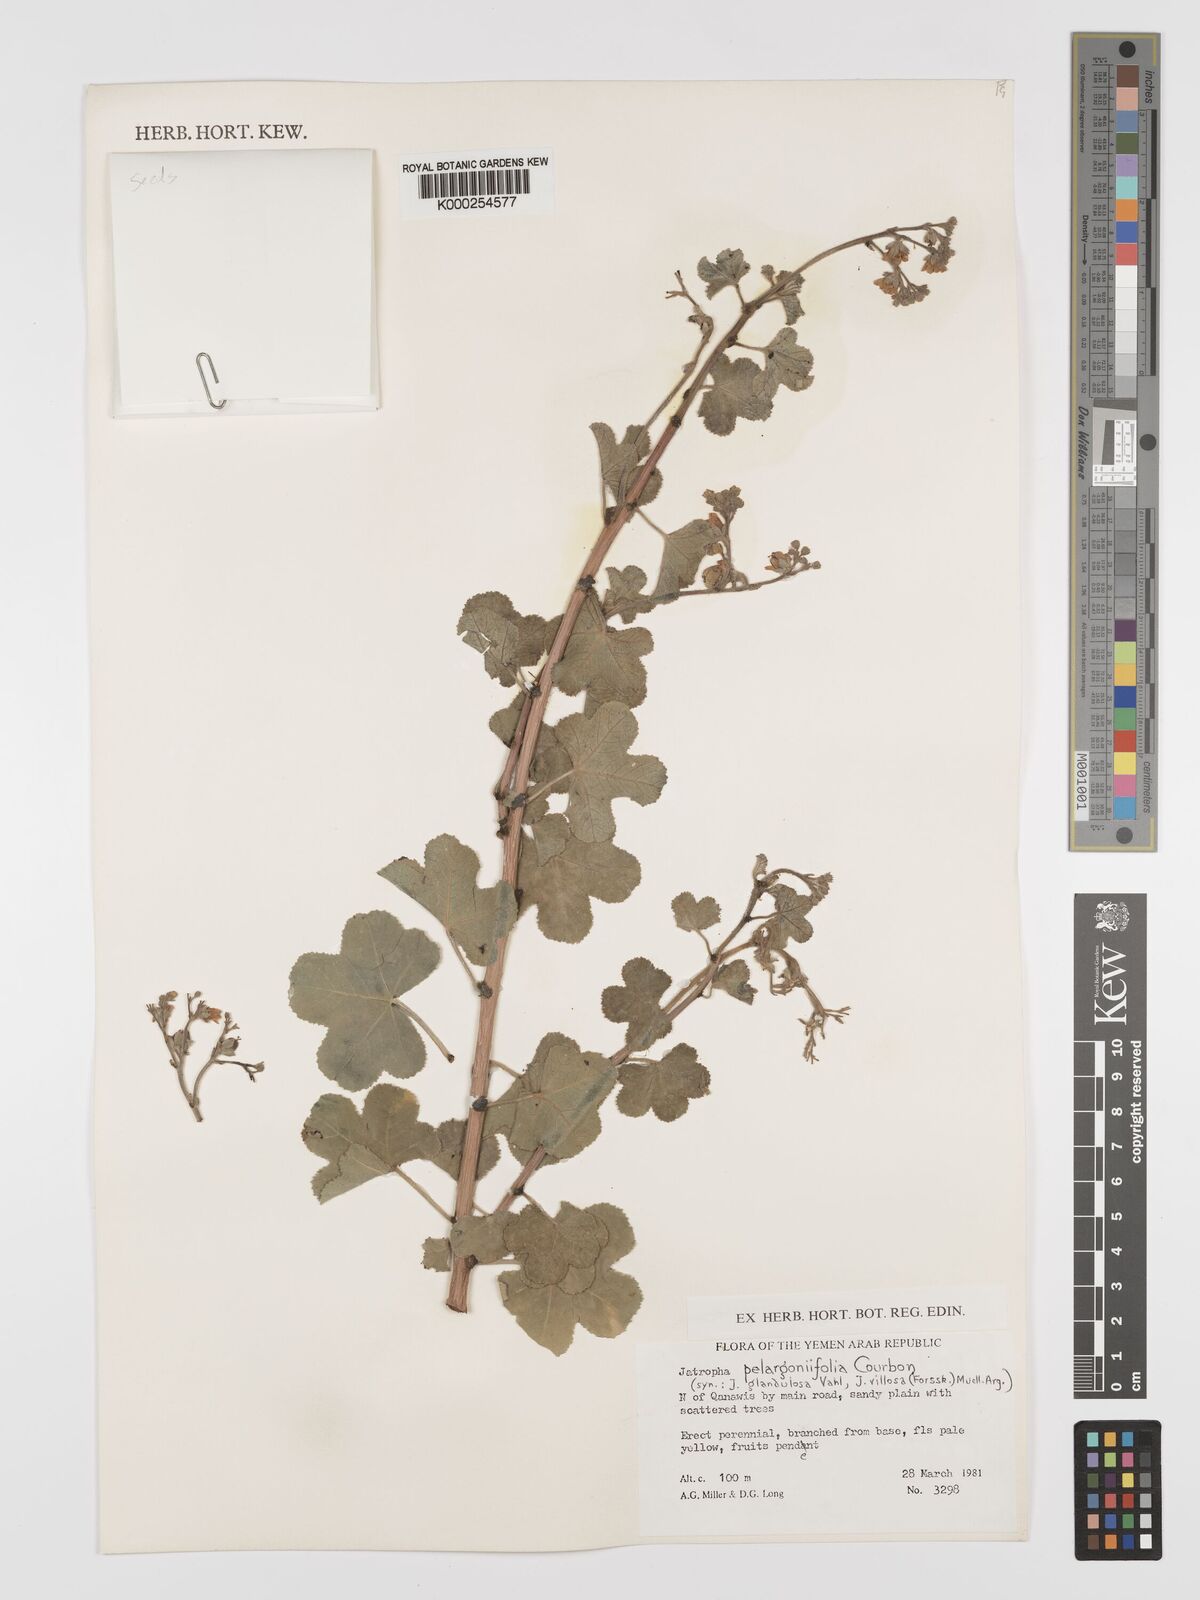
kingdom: Plantae
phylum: Tracheophyta
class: Magnoliopsida
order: Malpighiales
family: Euphorbiaceae
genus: Jatropha
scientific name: Jatropha pelargoniifolia
